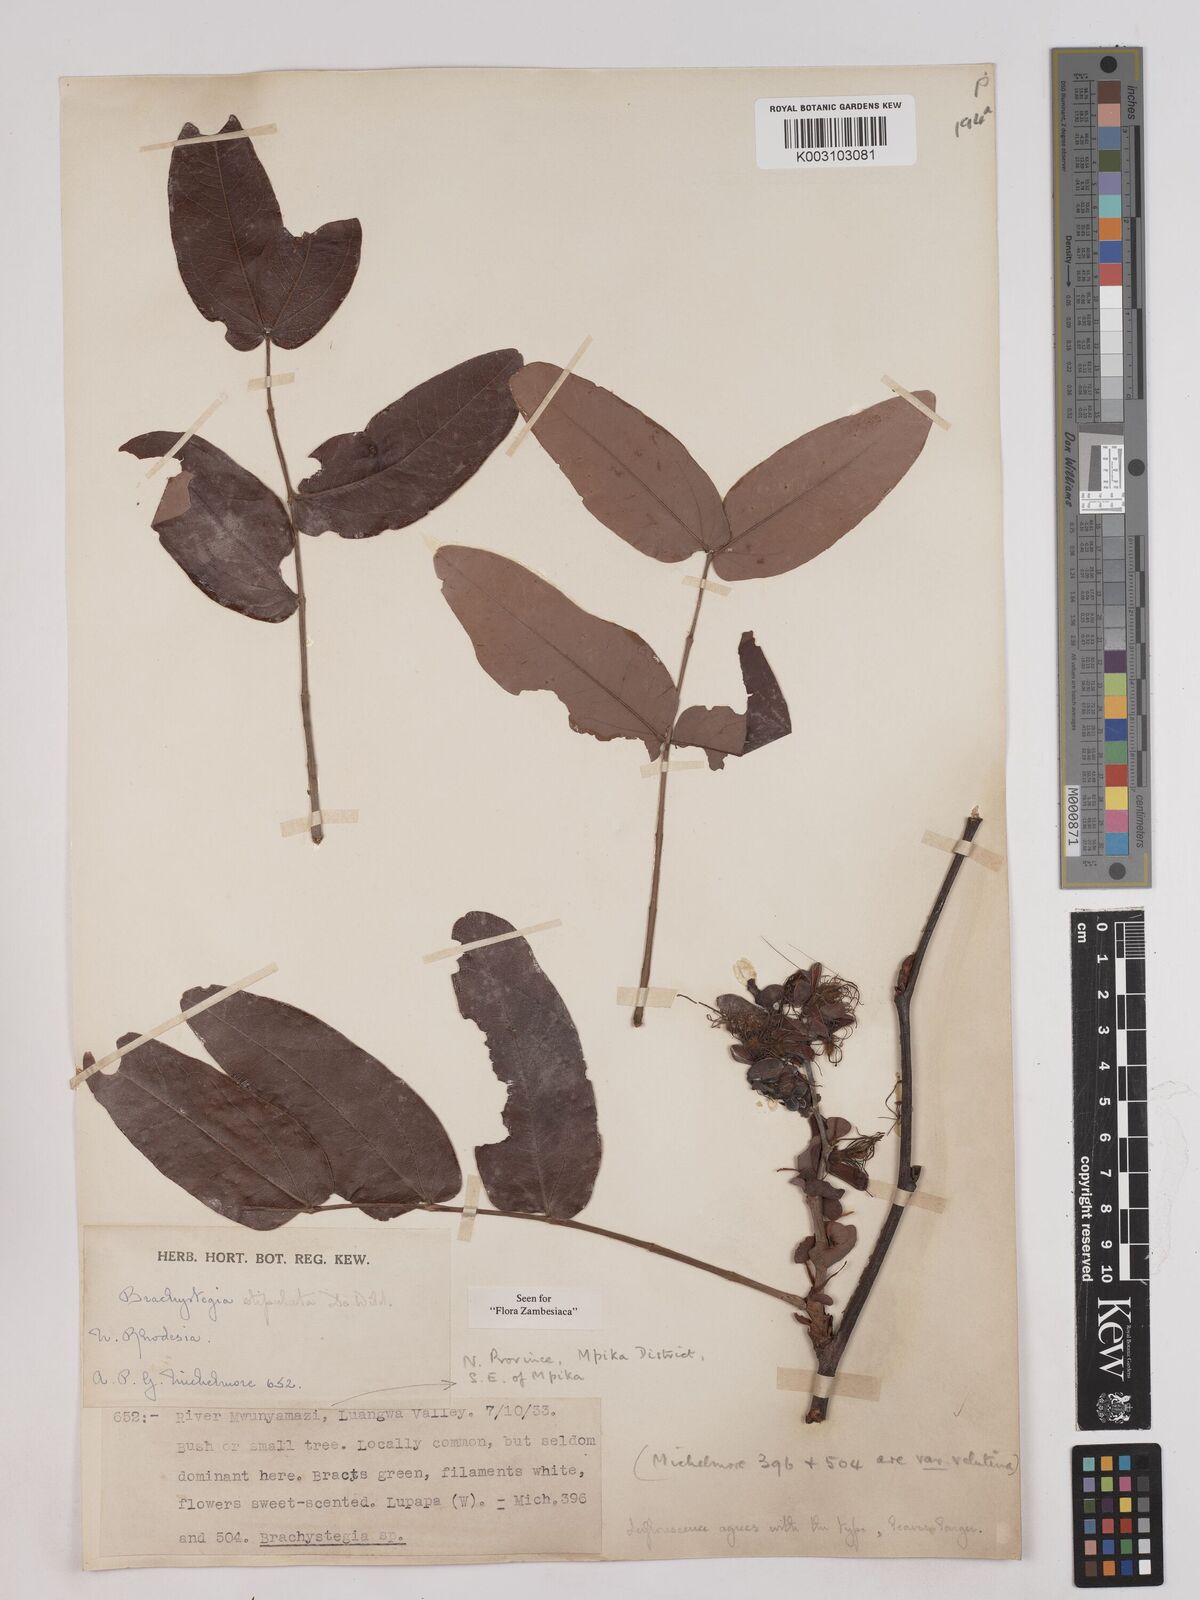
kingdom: Plantae
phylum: Tracheophyta
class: Magnoliopsida
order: Fabales
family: Fabaceae
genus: Brachystegia
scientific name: Brachystegia stipulata
